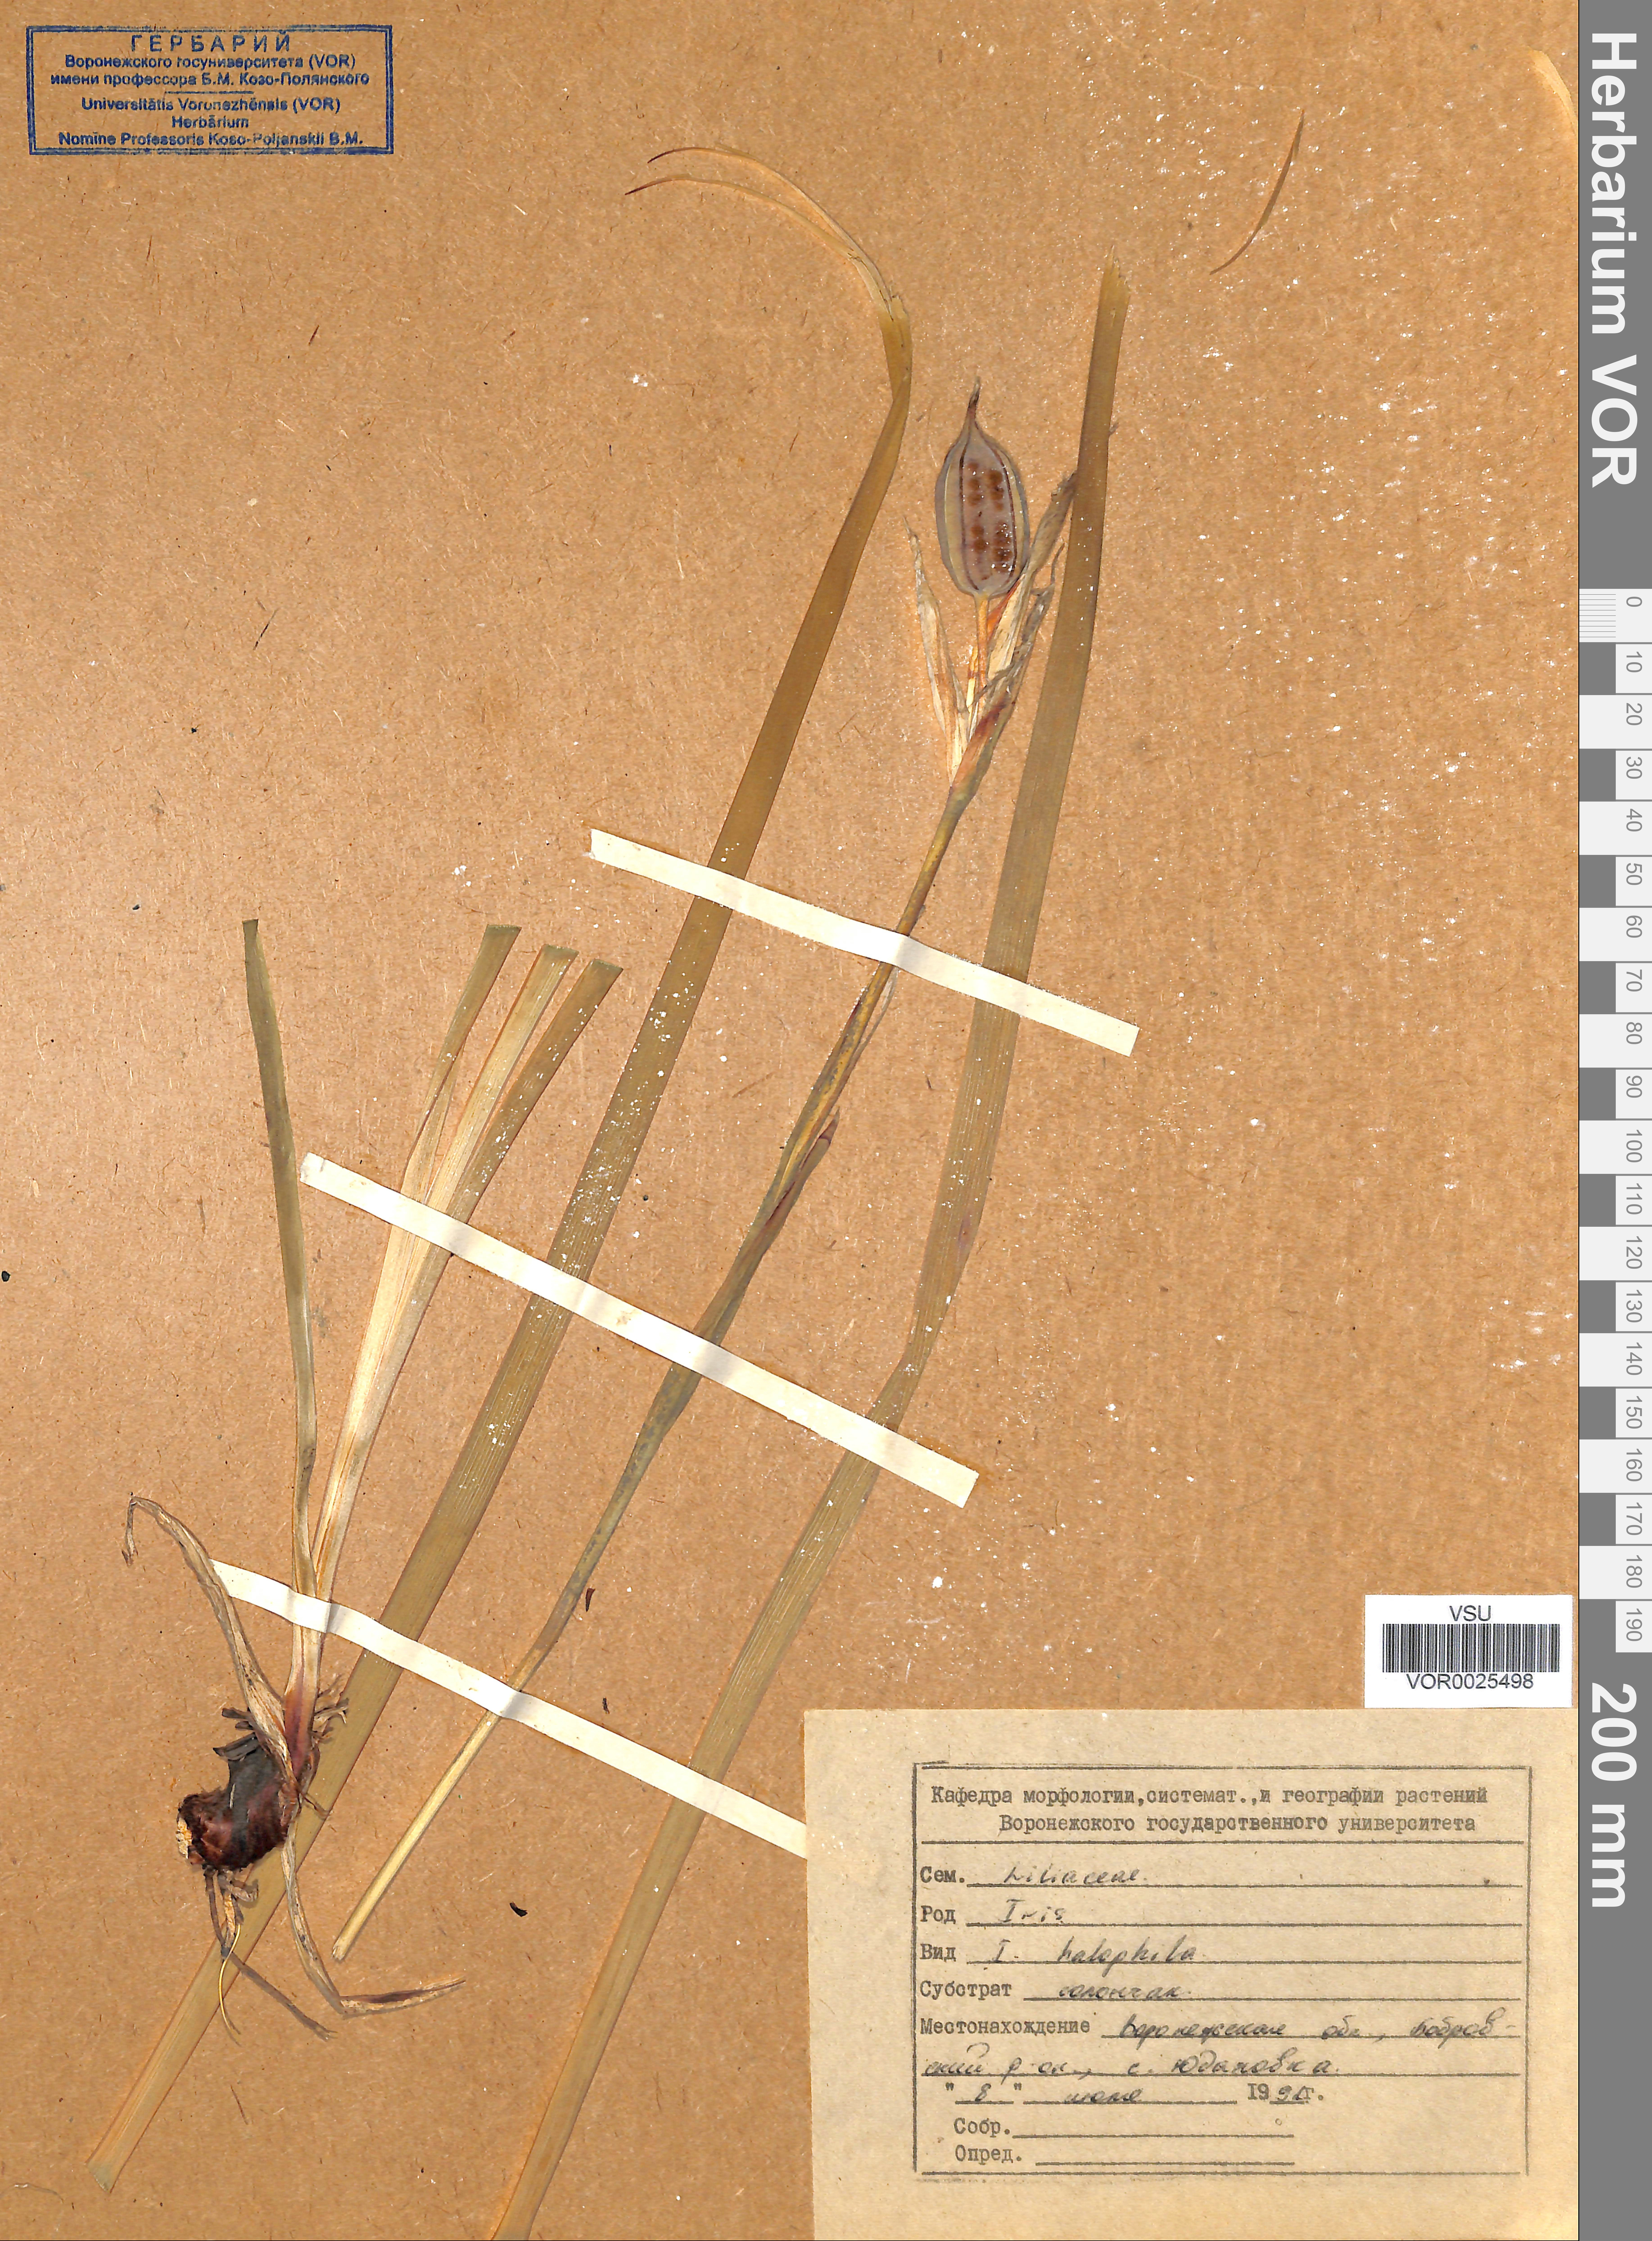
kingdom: Plantae
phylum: Tracheophyta
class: Liliopsida
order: Asparagales
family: Iridaceae
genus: Iris
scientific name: Iris halophila
